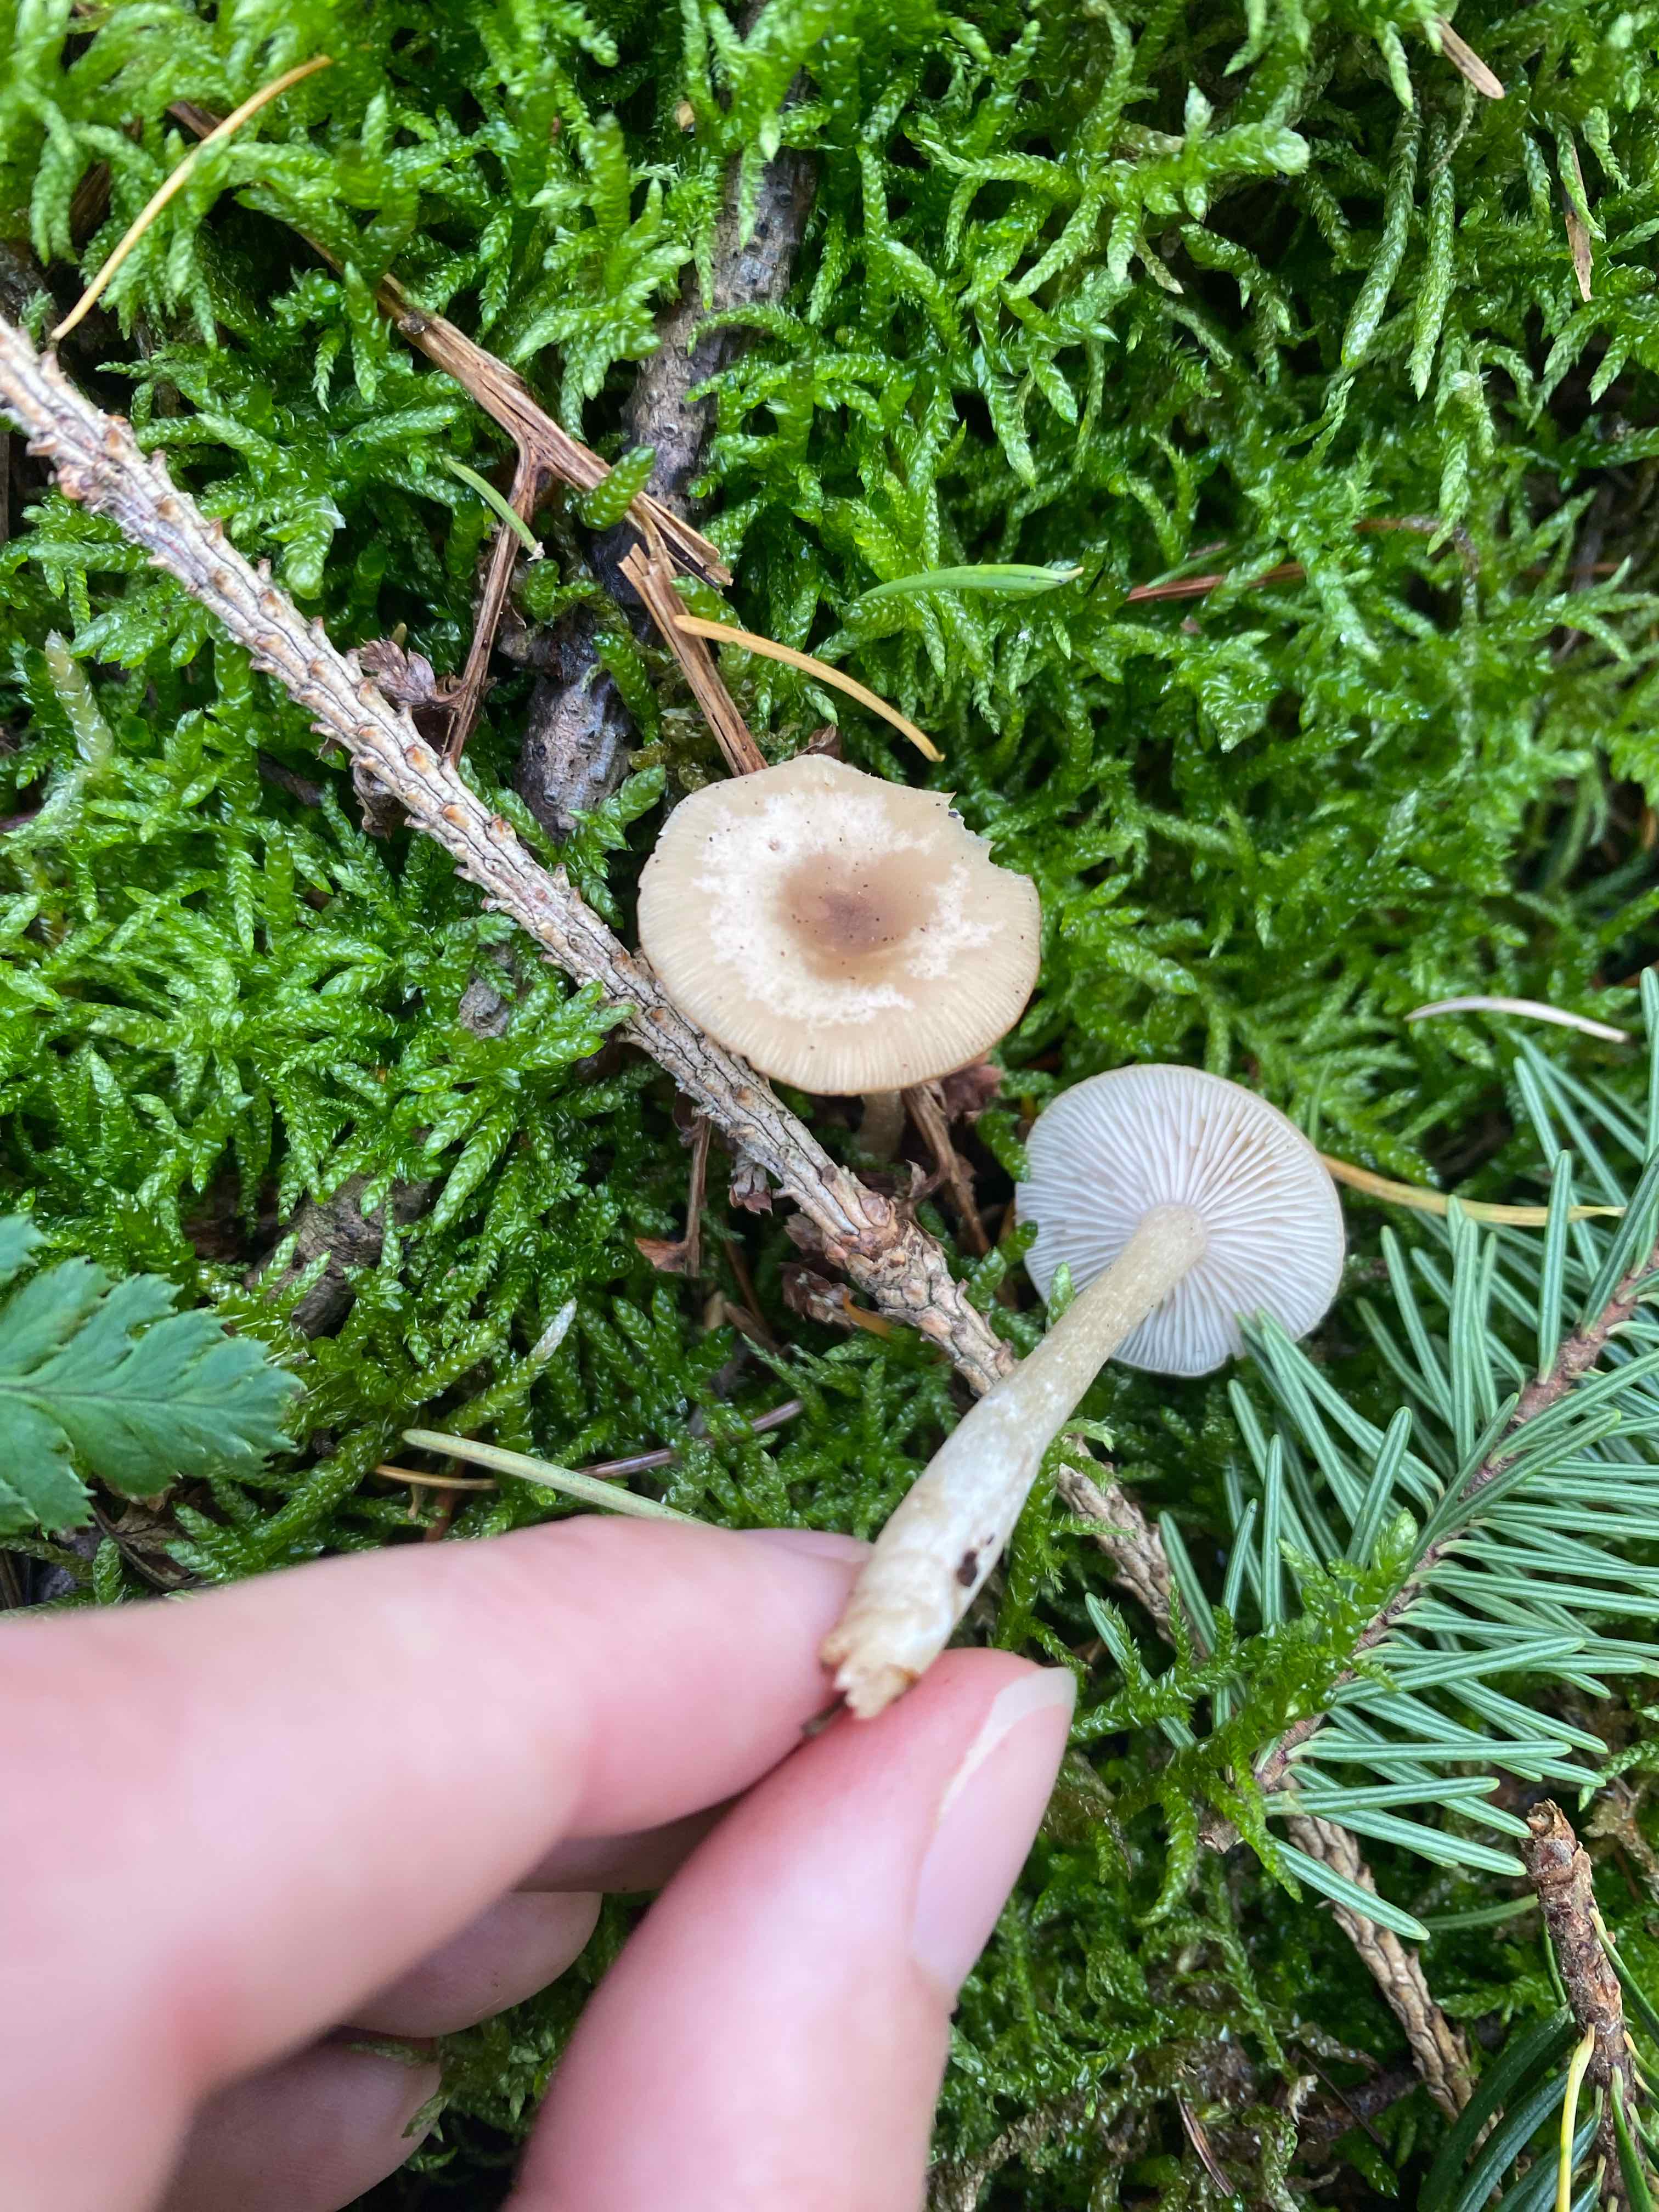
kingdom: Fungi
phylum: Basidiomycota
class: Agaricomycetes
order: Agaricales
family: Tricholomataceae
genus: Clitocybe
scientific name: Clitocybe fragrans
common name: vellugtende tragthat
